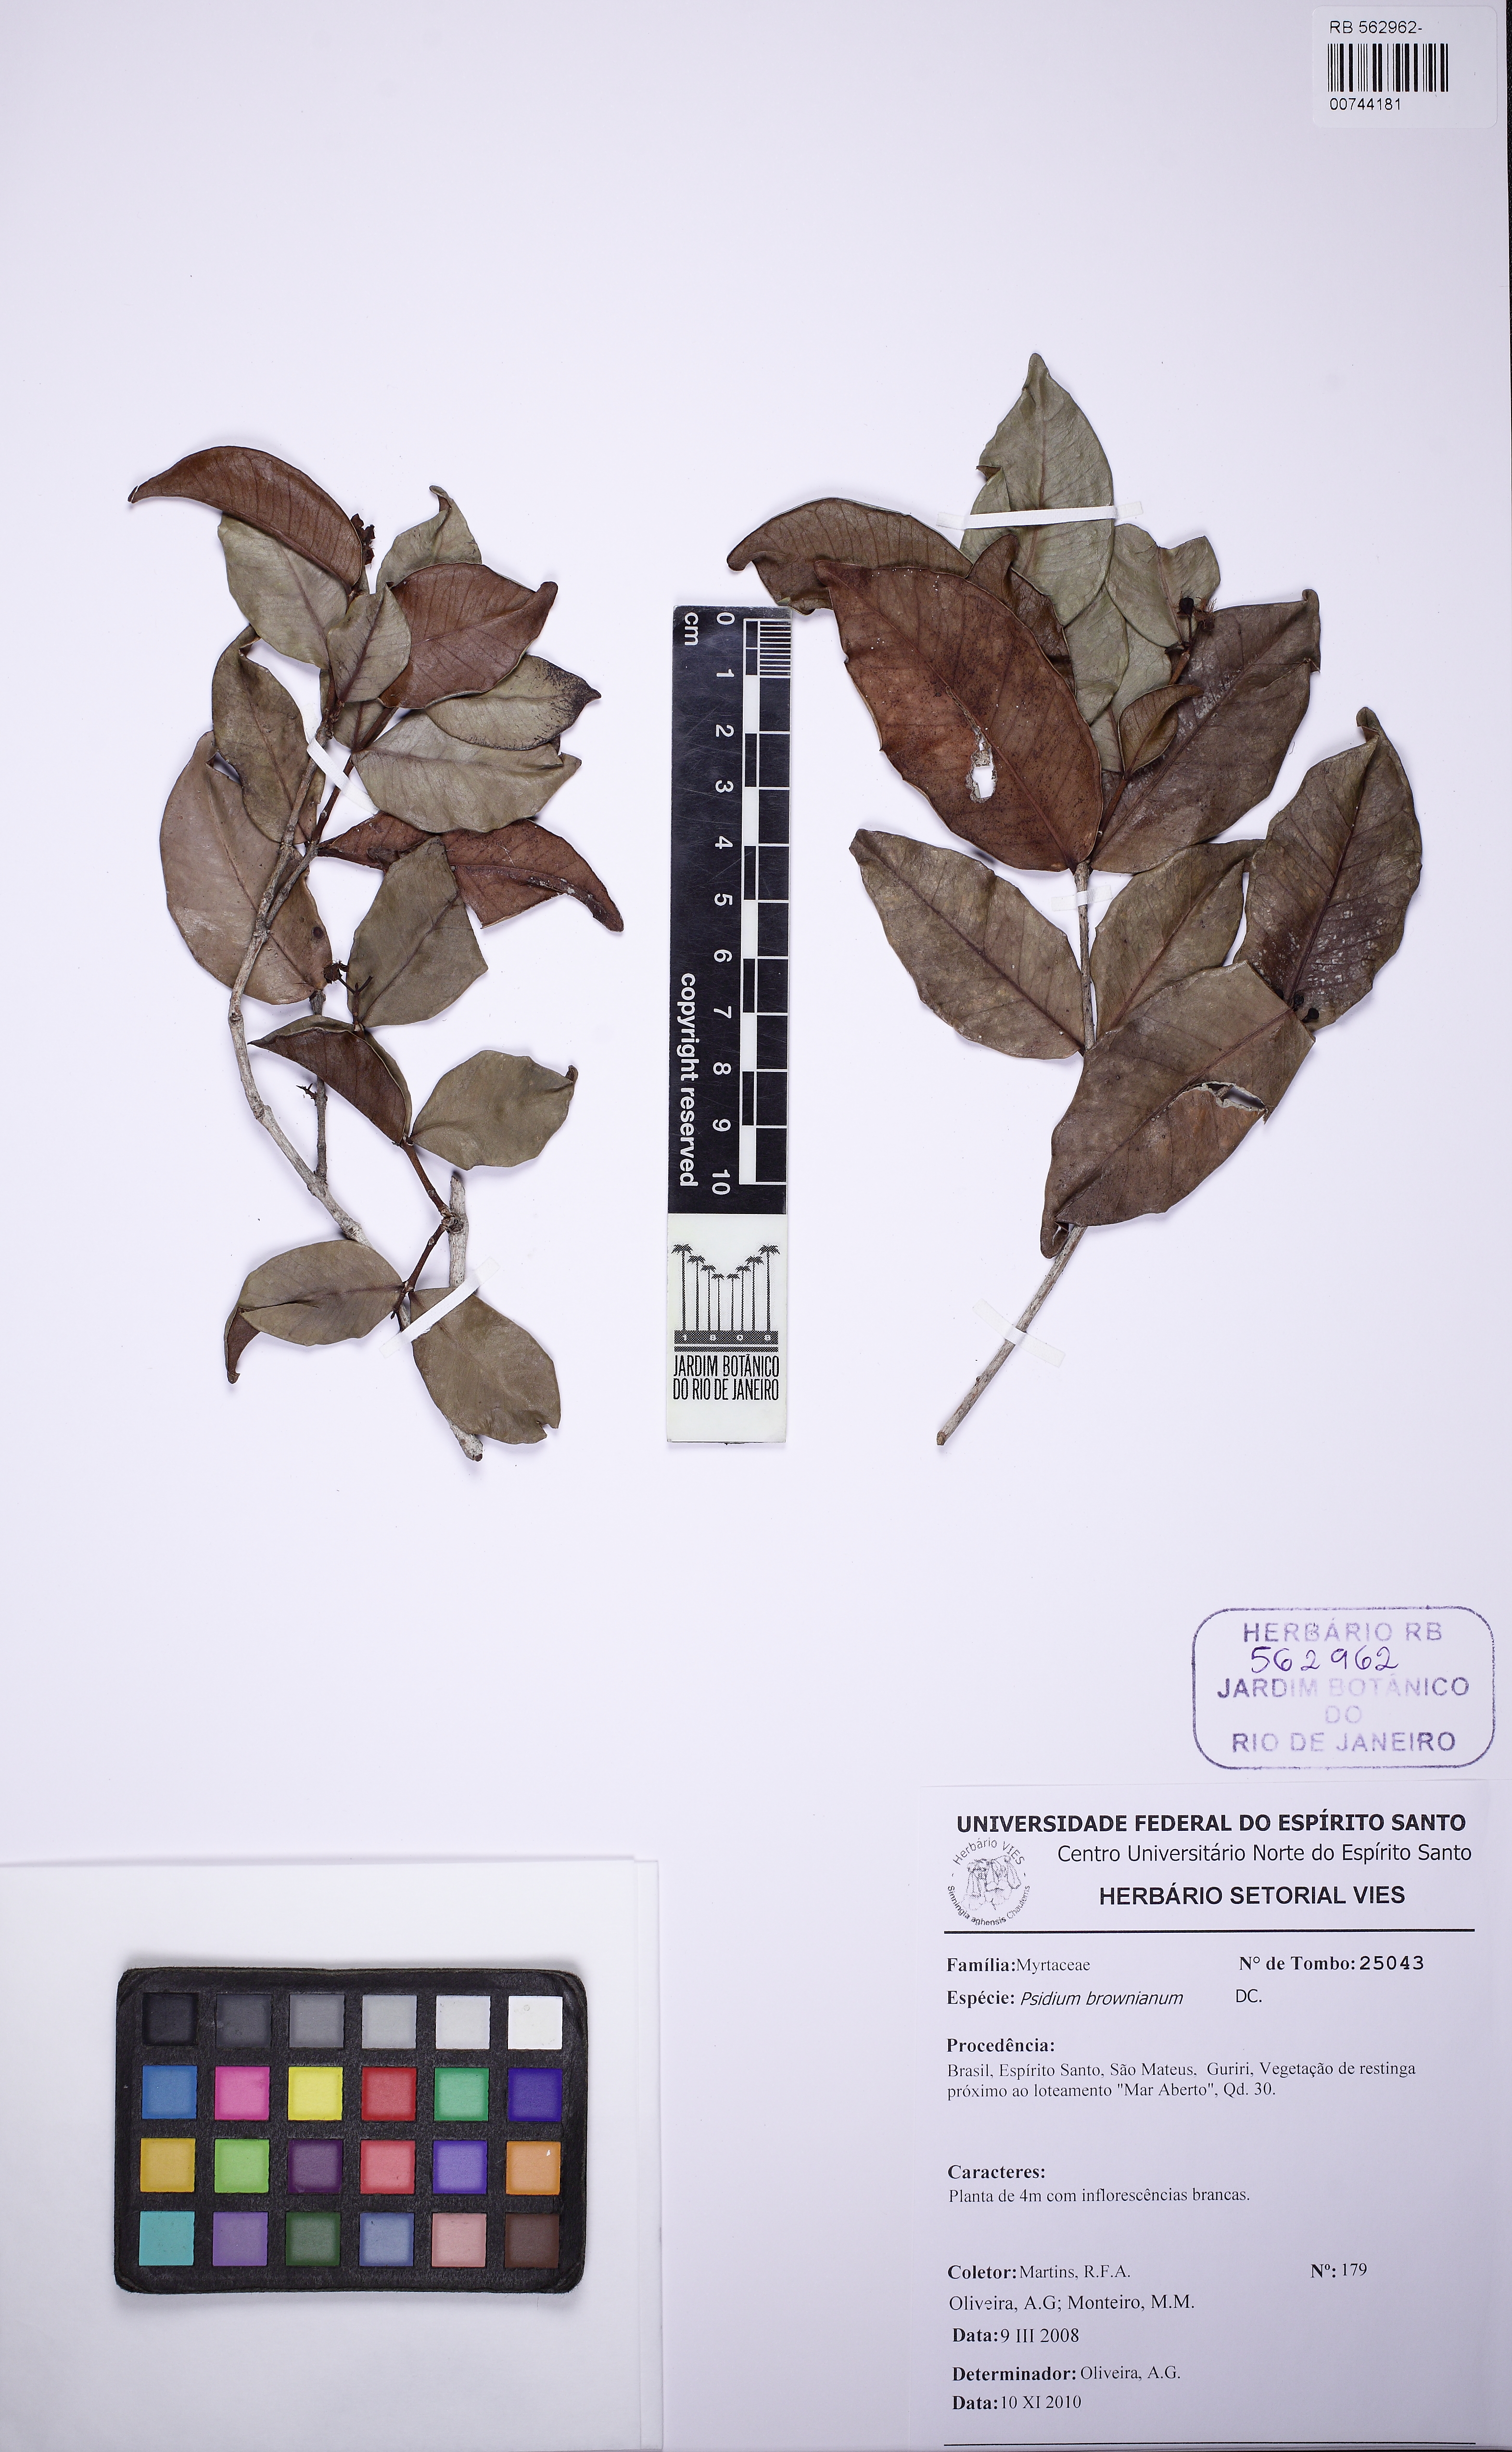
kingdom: Plantae
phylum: Tracheophyta
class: Magnoliopsida
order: Myrtales
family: Myrtaceae
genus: Psidium
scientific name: Psidium brownianum
